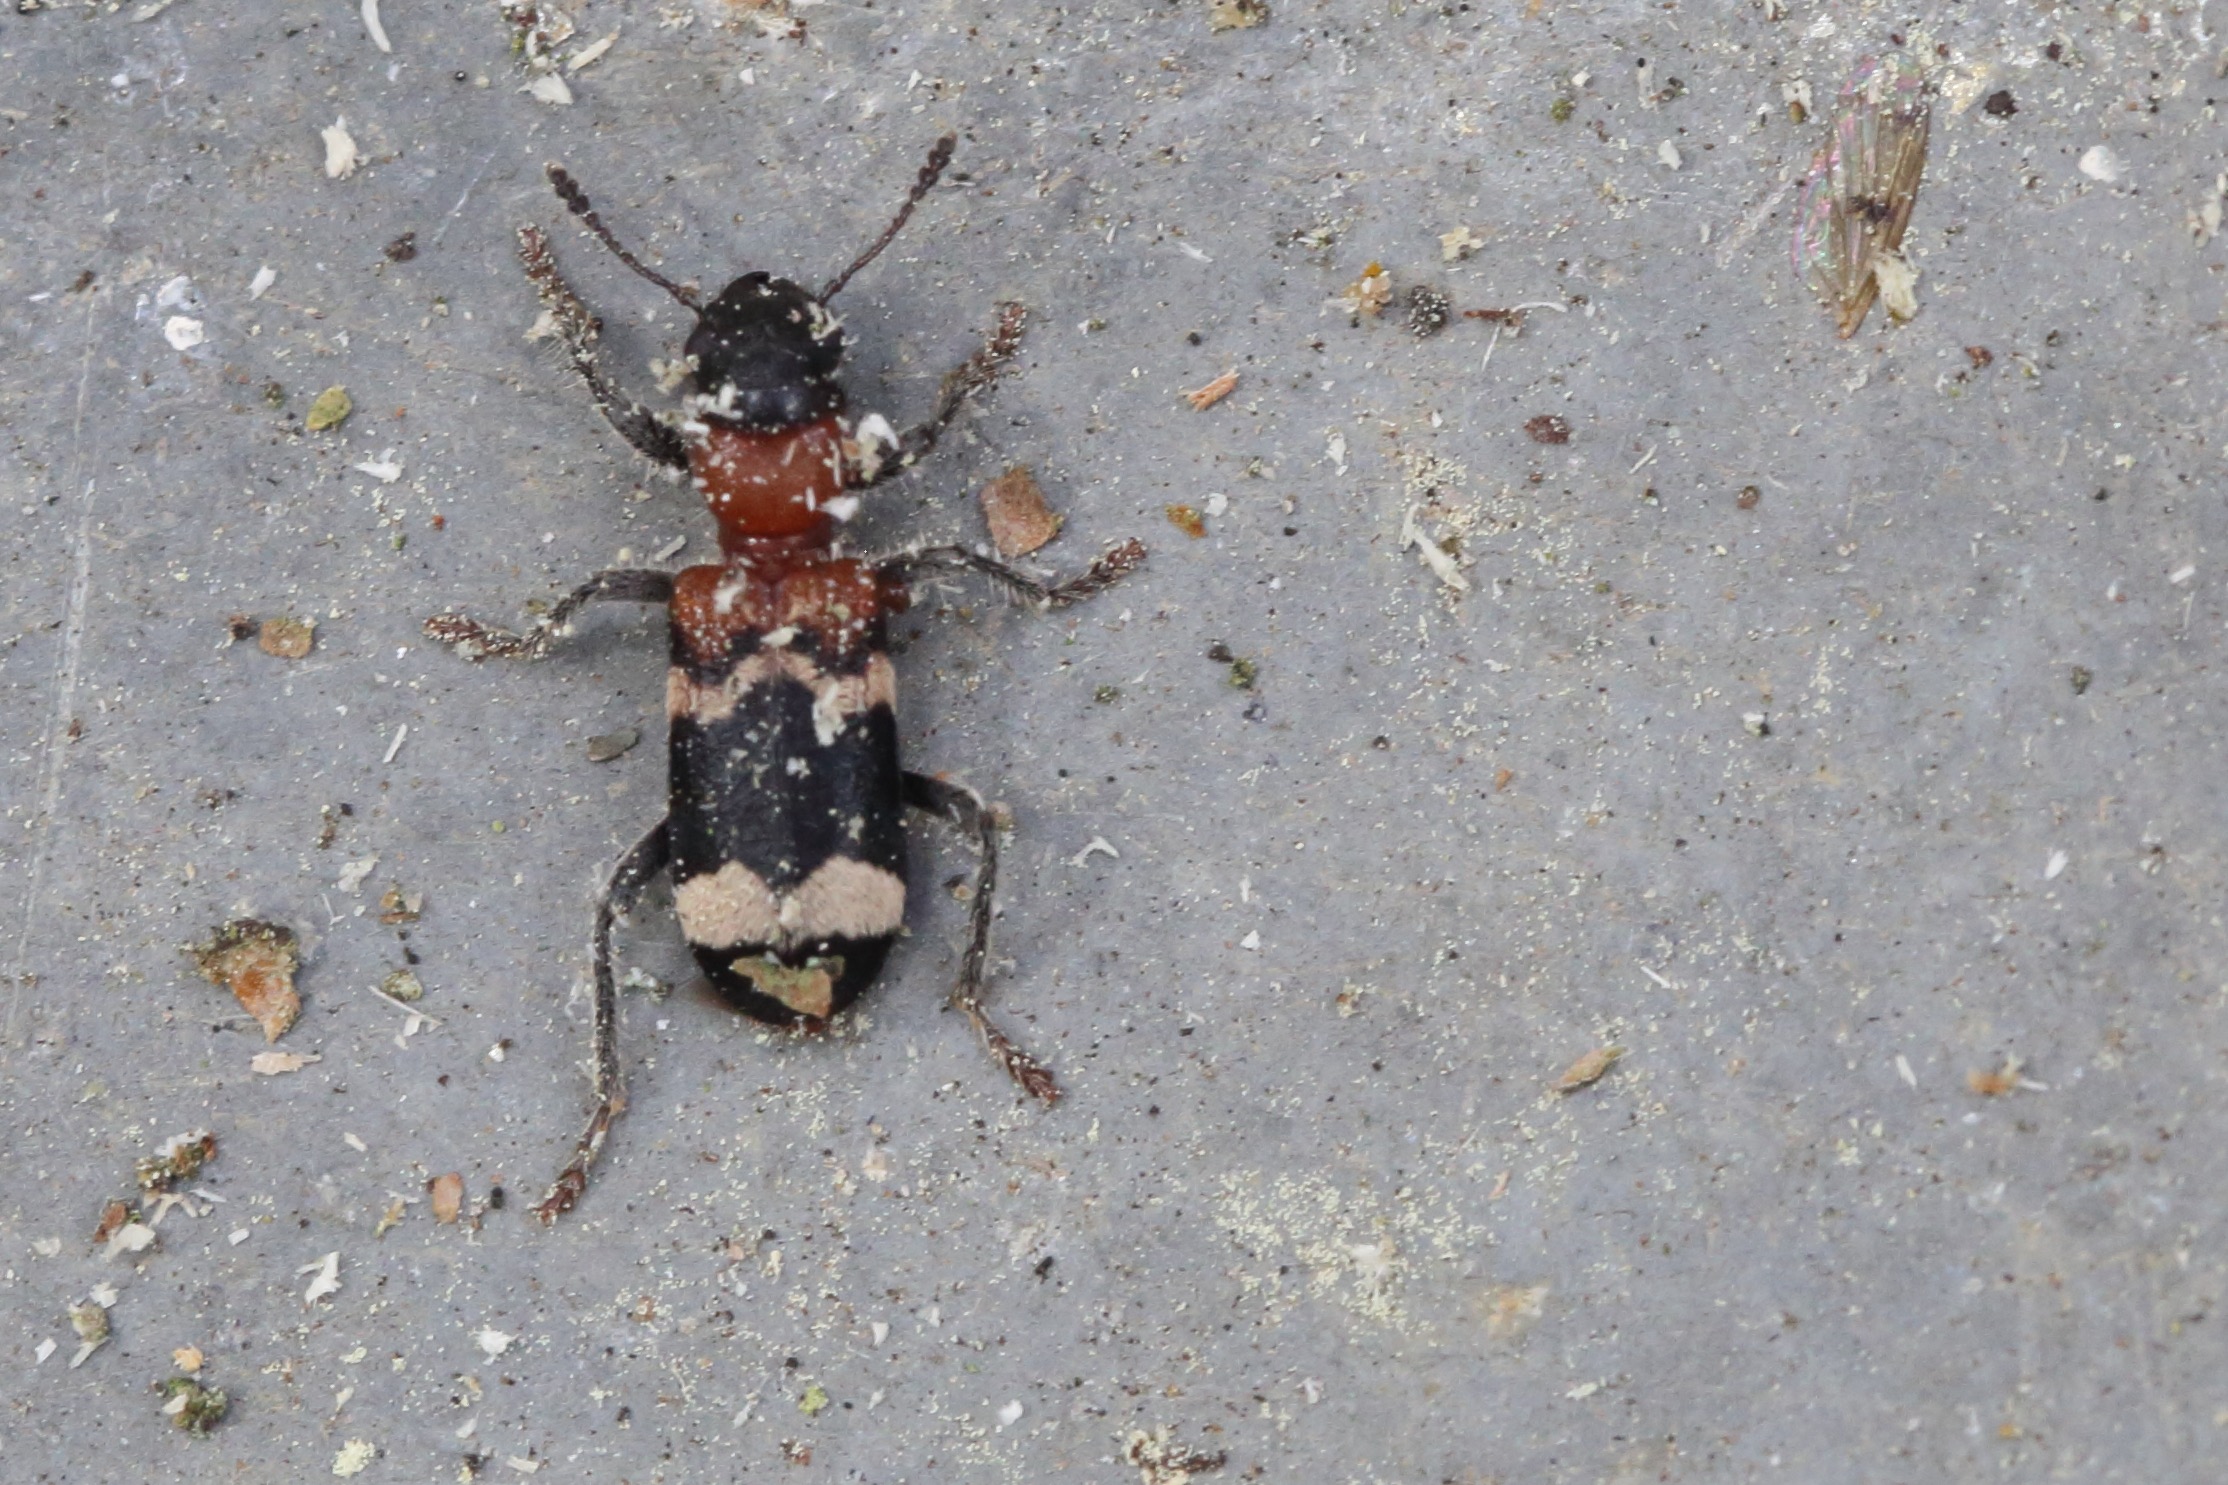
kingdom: Animalia
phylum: Arthropoda
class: Insecta
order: Coleoptera
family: Cleridae
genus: Thanasimus
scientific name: Thanasimus formicarius
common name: Myrebille
